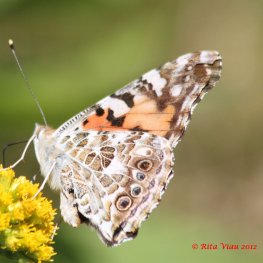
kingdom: Animalia
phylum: Arthropoda
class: Insecta
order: Lepidoptera
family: Nymphalidae
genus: Vanessa
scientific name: Vanessa cardui
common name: Painted Lady
